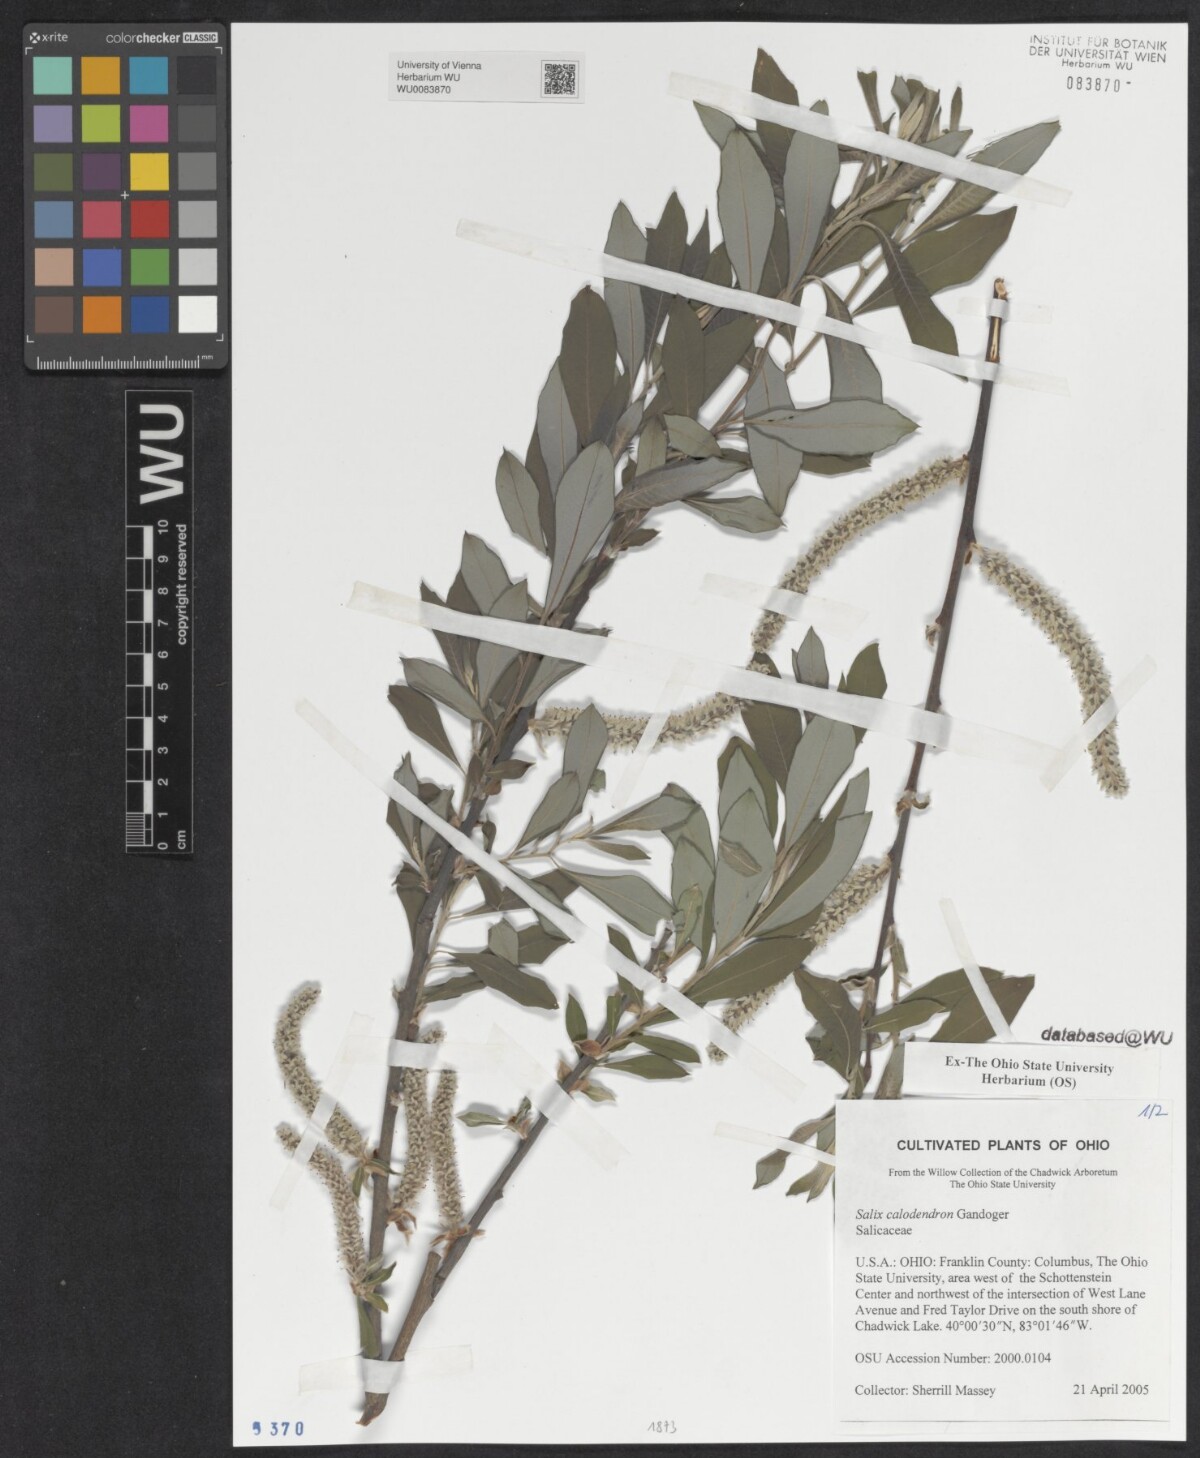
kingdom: Plantae
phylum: Tracheophyta
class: Magnoliopsida
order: Malpighiales
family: Salicaceae
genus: Salix
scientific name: Salix calodendron
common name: Holme willow
